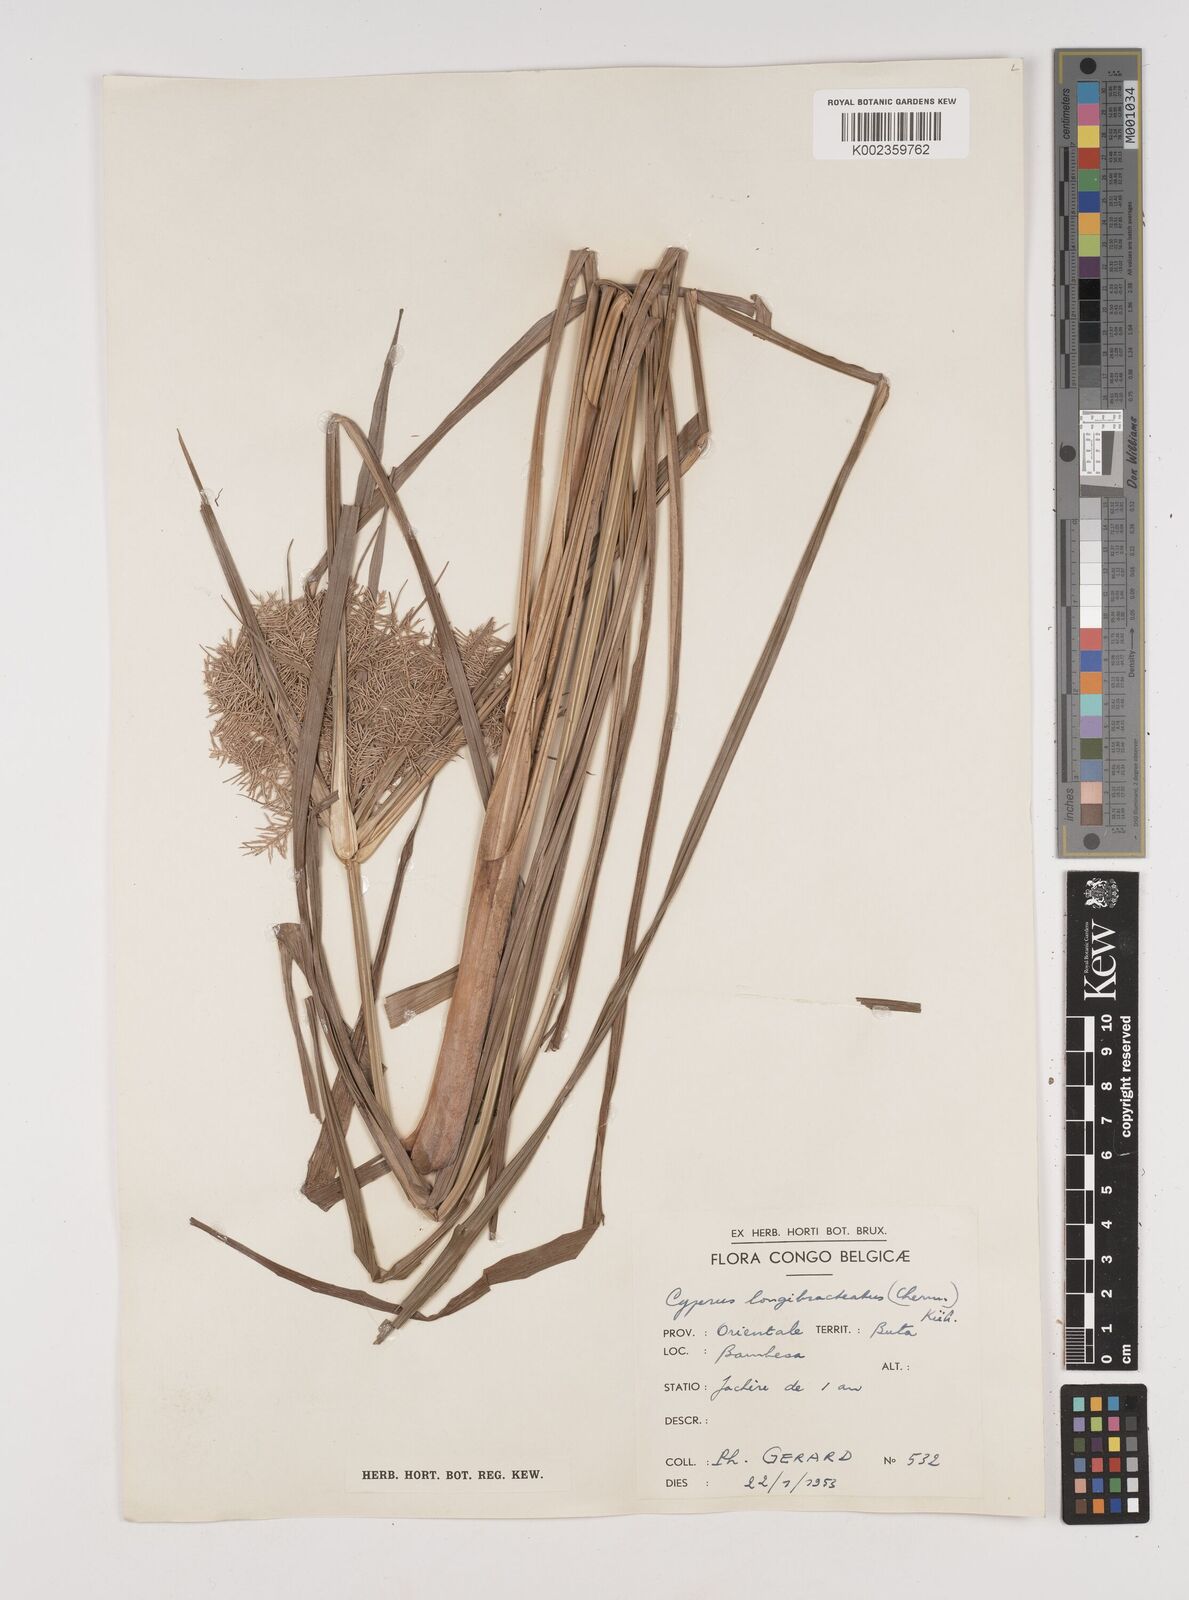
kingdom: Plantae
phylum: Tracheophyta
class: Liliopsida
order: Poales
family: Cyperaceae
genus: Cyperus
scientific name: Cyperus distans
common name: Slender cyperus
